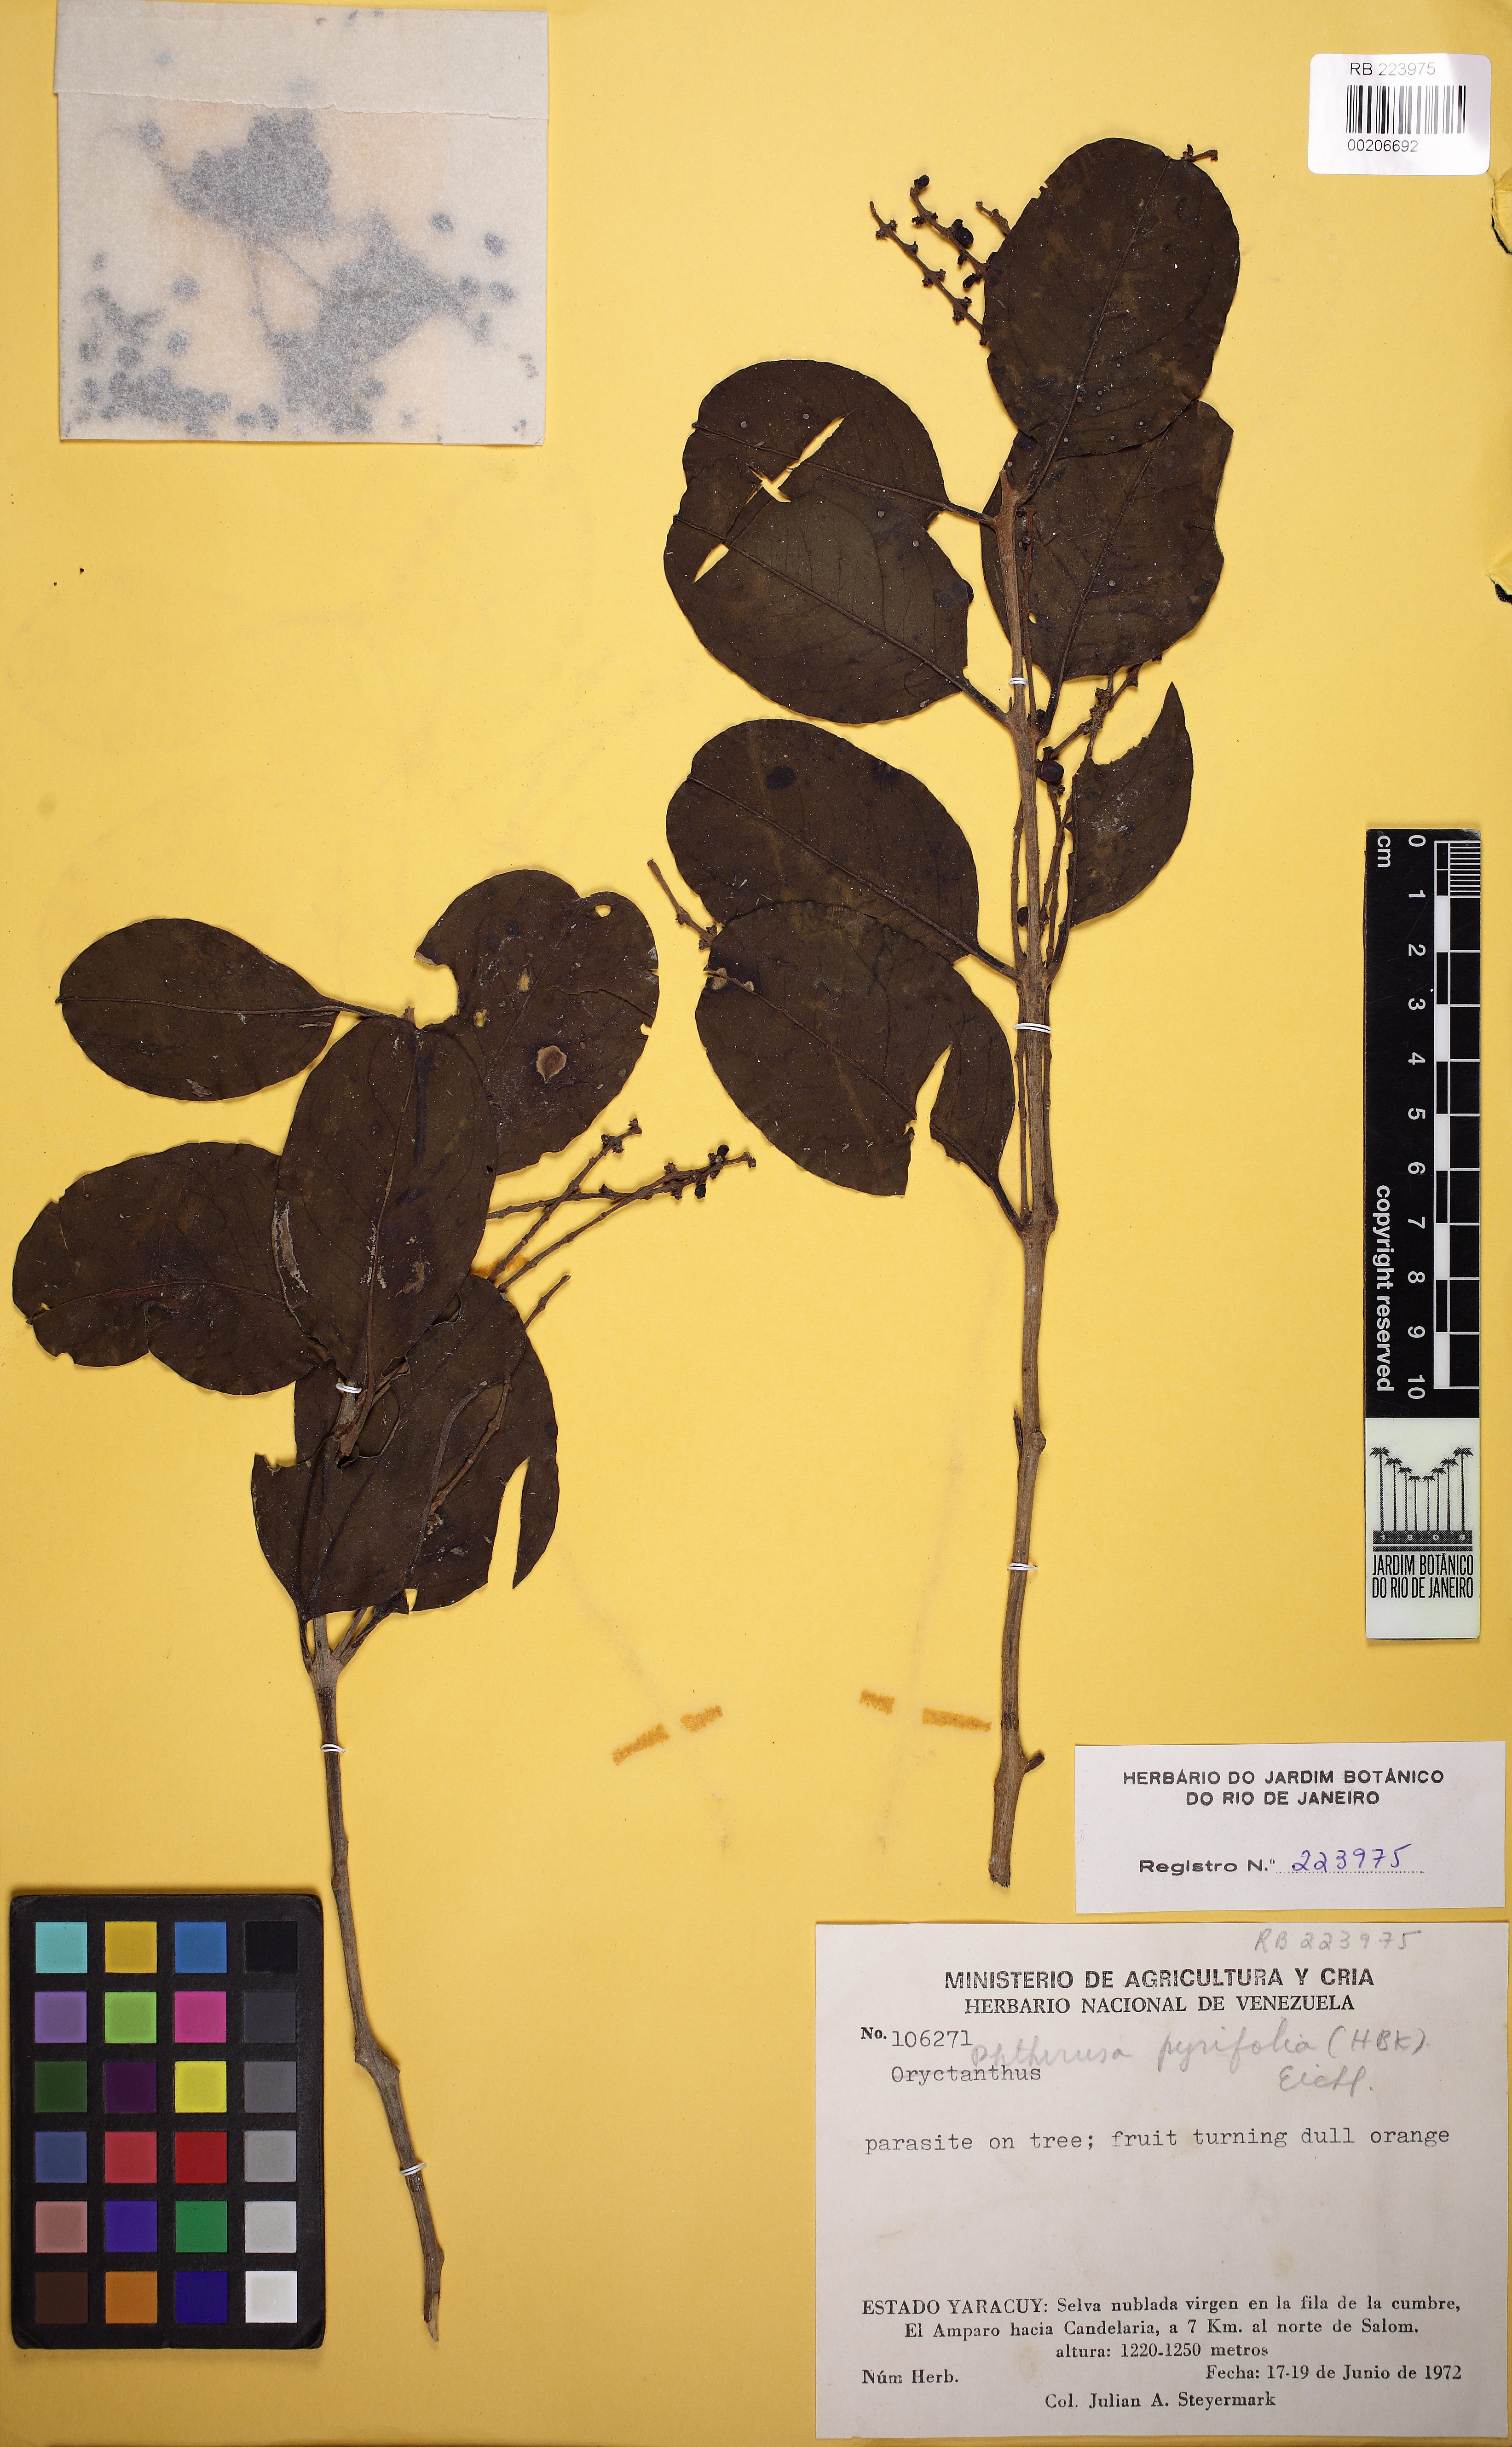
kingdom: Plantae
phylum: Tracheophyta
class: Magnoliopsida
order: Santalales
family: Loranthaceae
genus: Passovia
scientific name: Passovia pyrifolia
